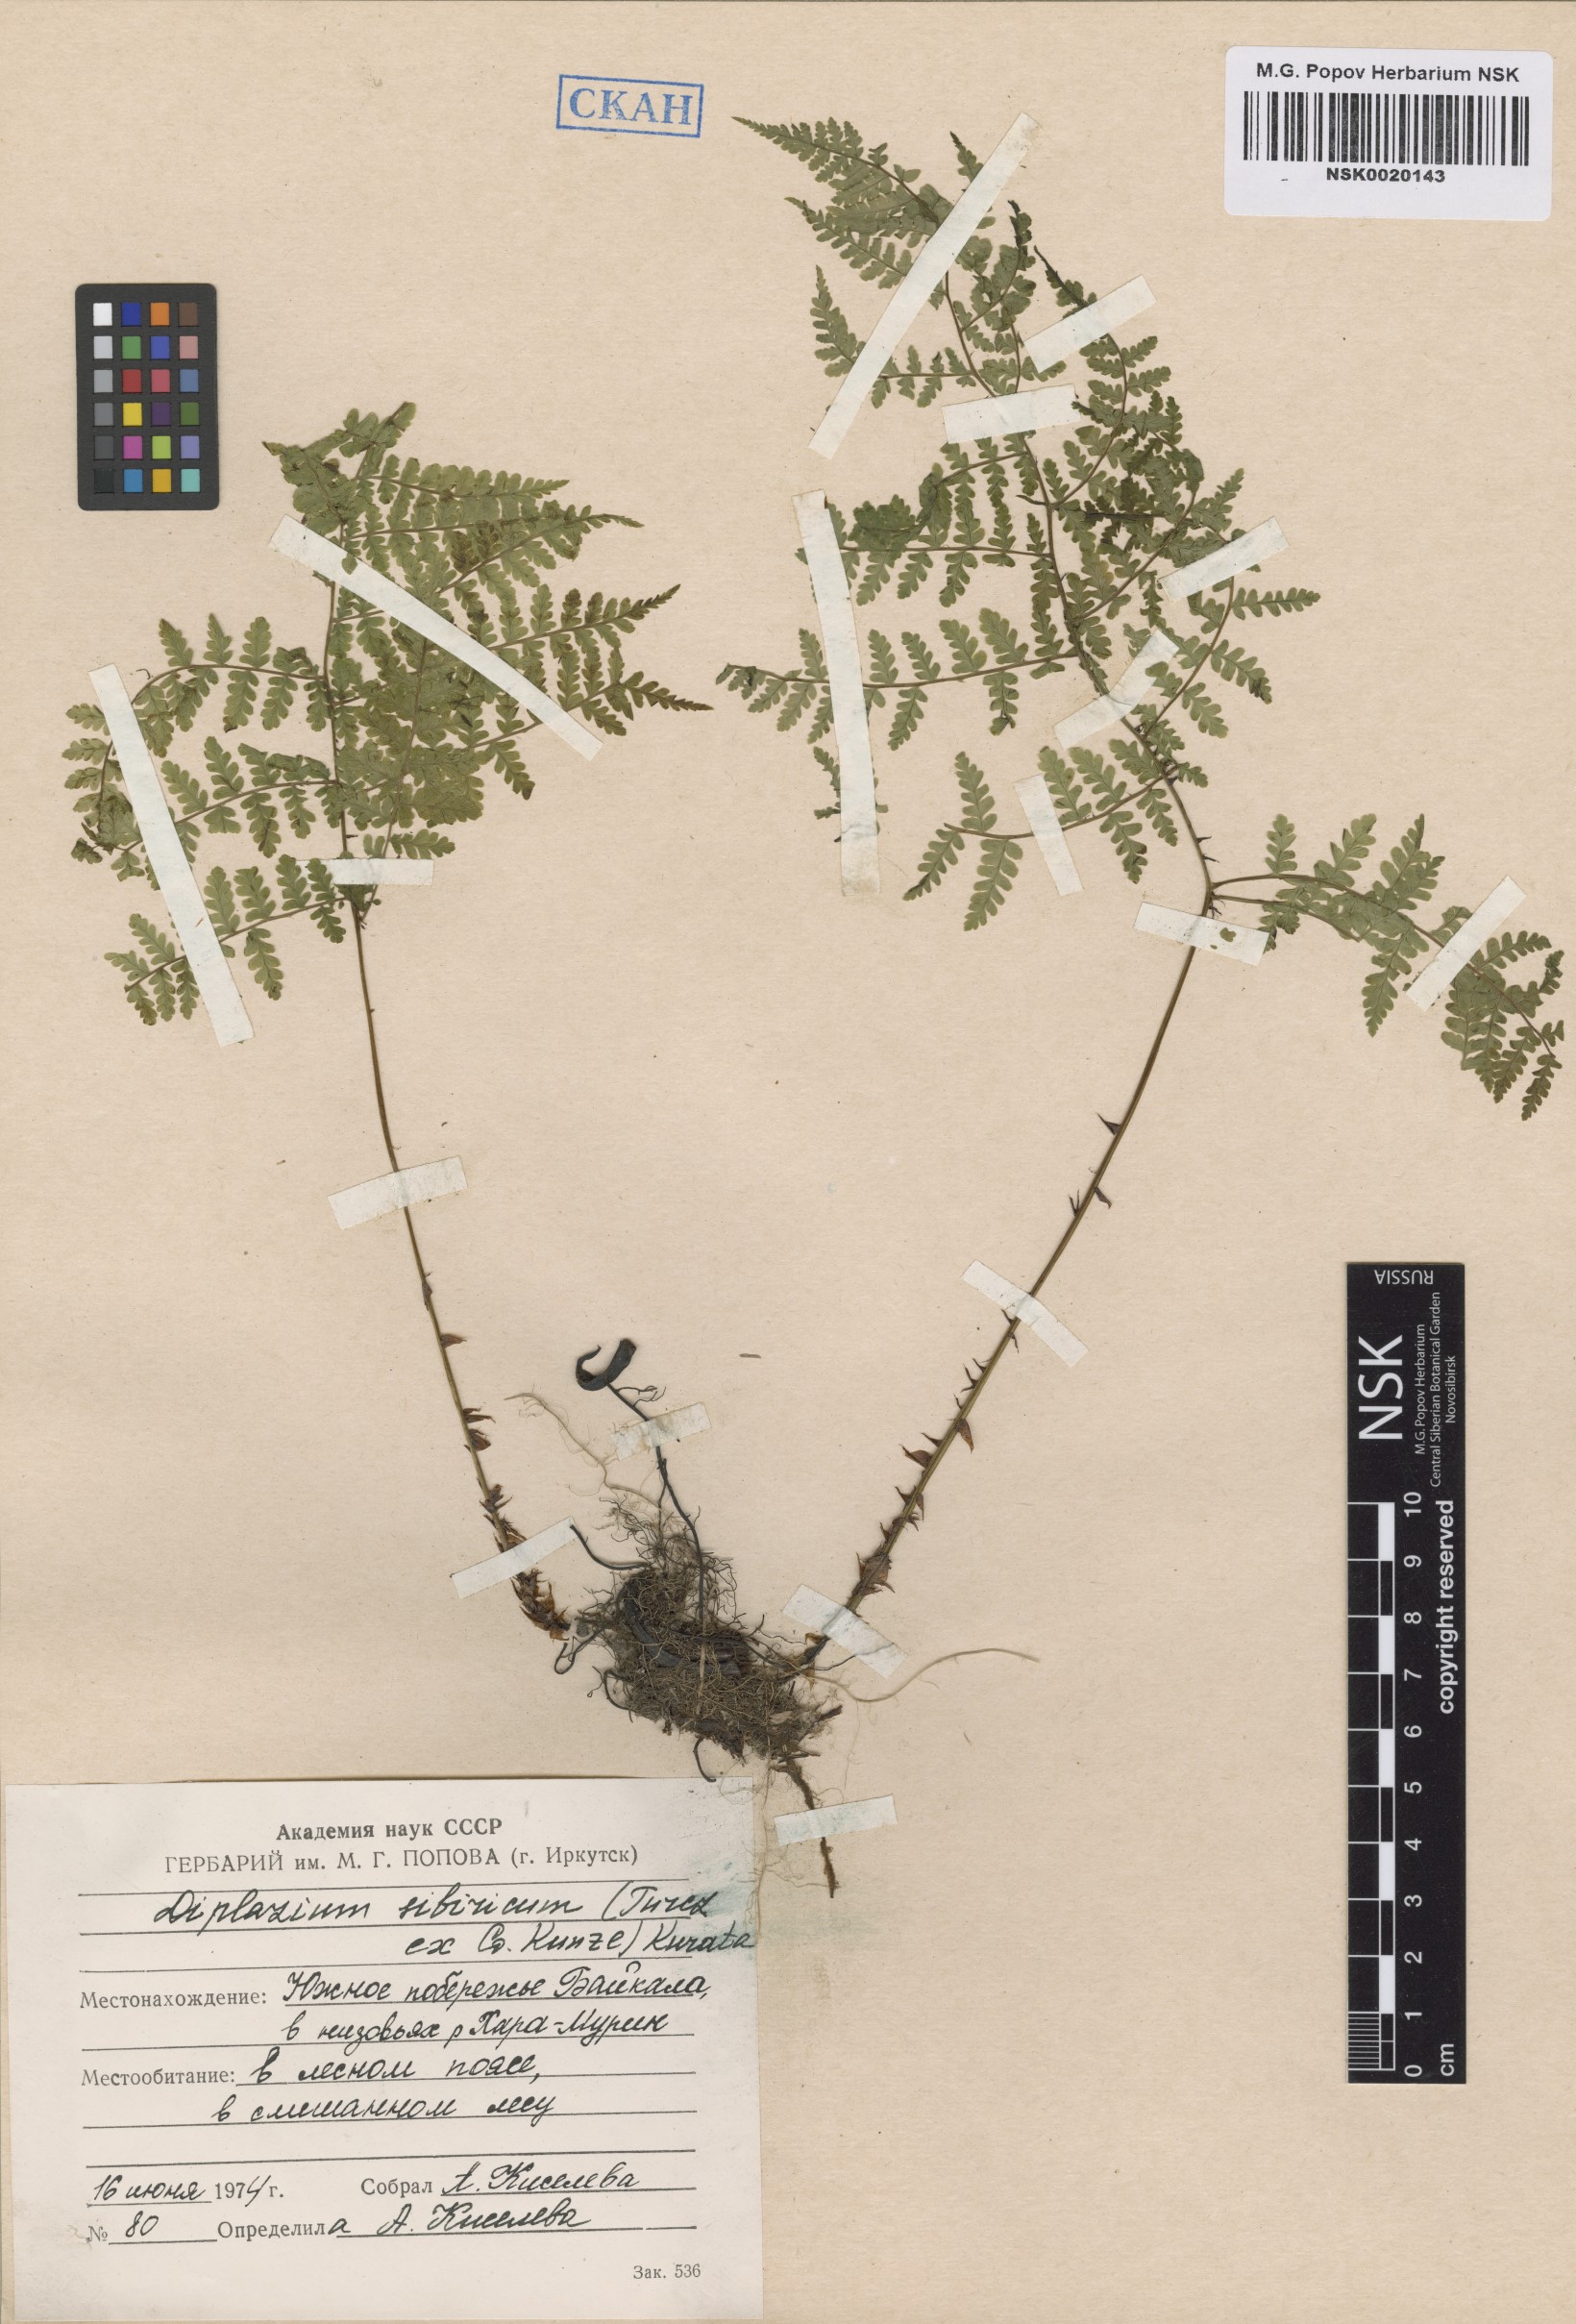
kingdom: Plantae
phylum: Tracheophyta
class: Polypodiopsida
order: Polypodiales
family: Athyriaceae
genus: Diplazium
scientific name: Diplazium sibiricum
